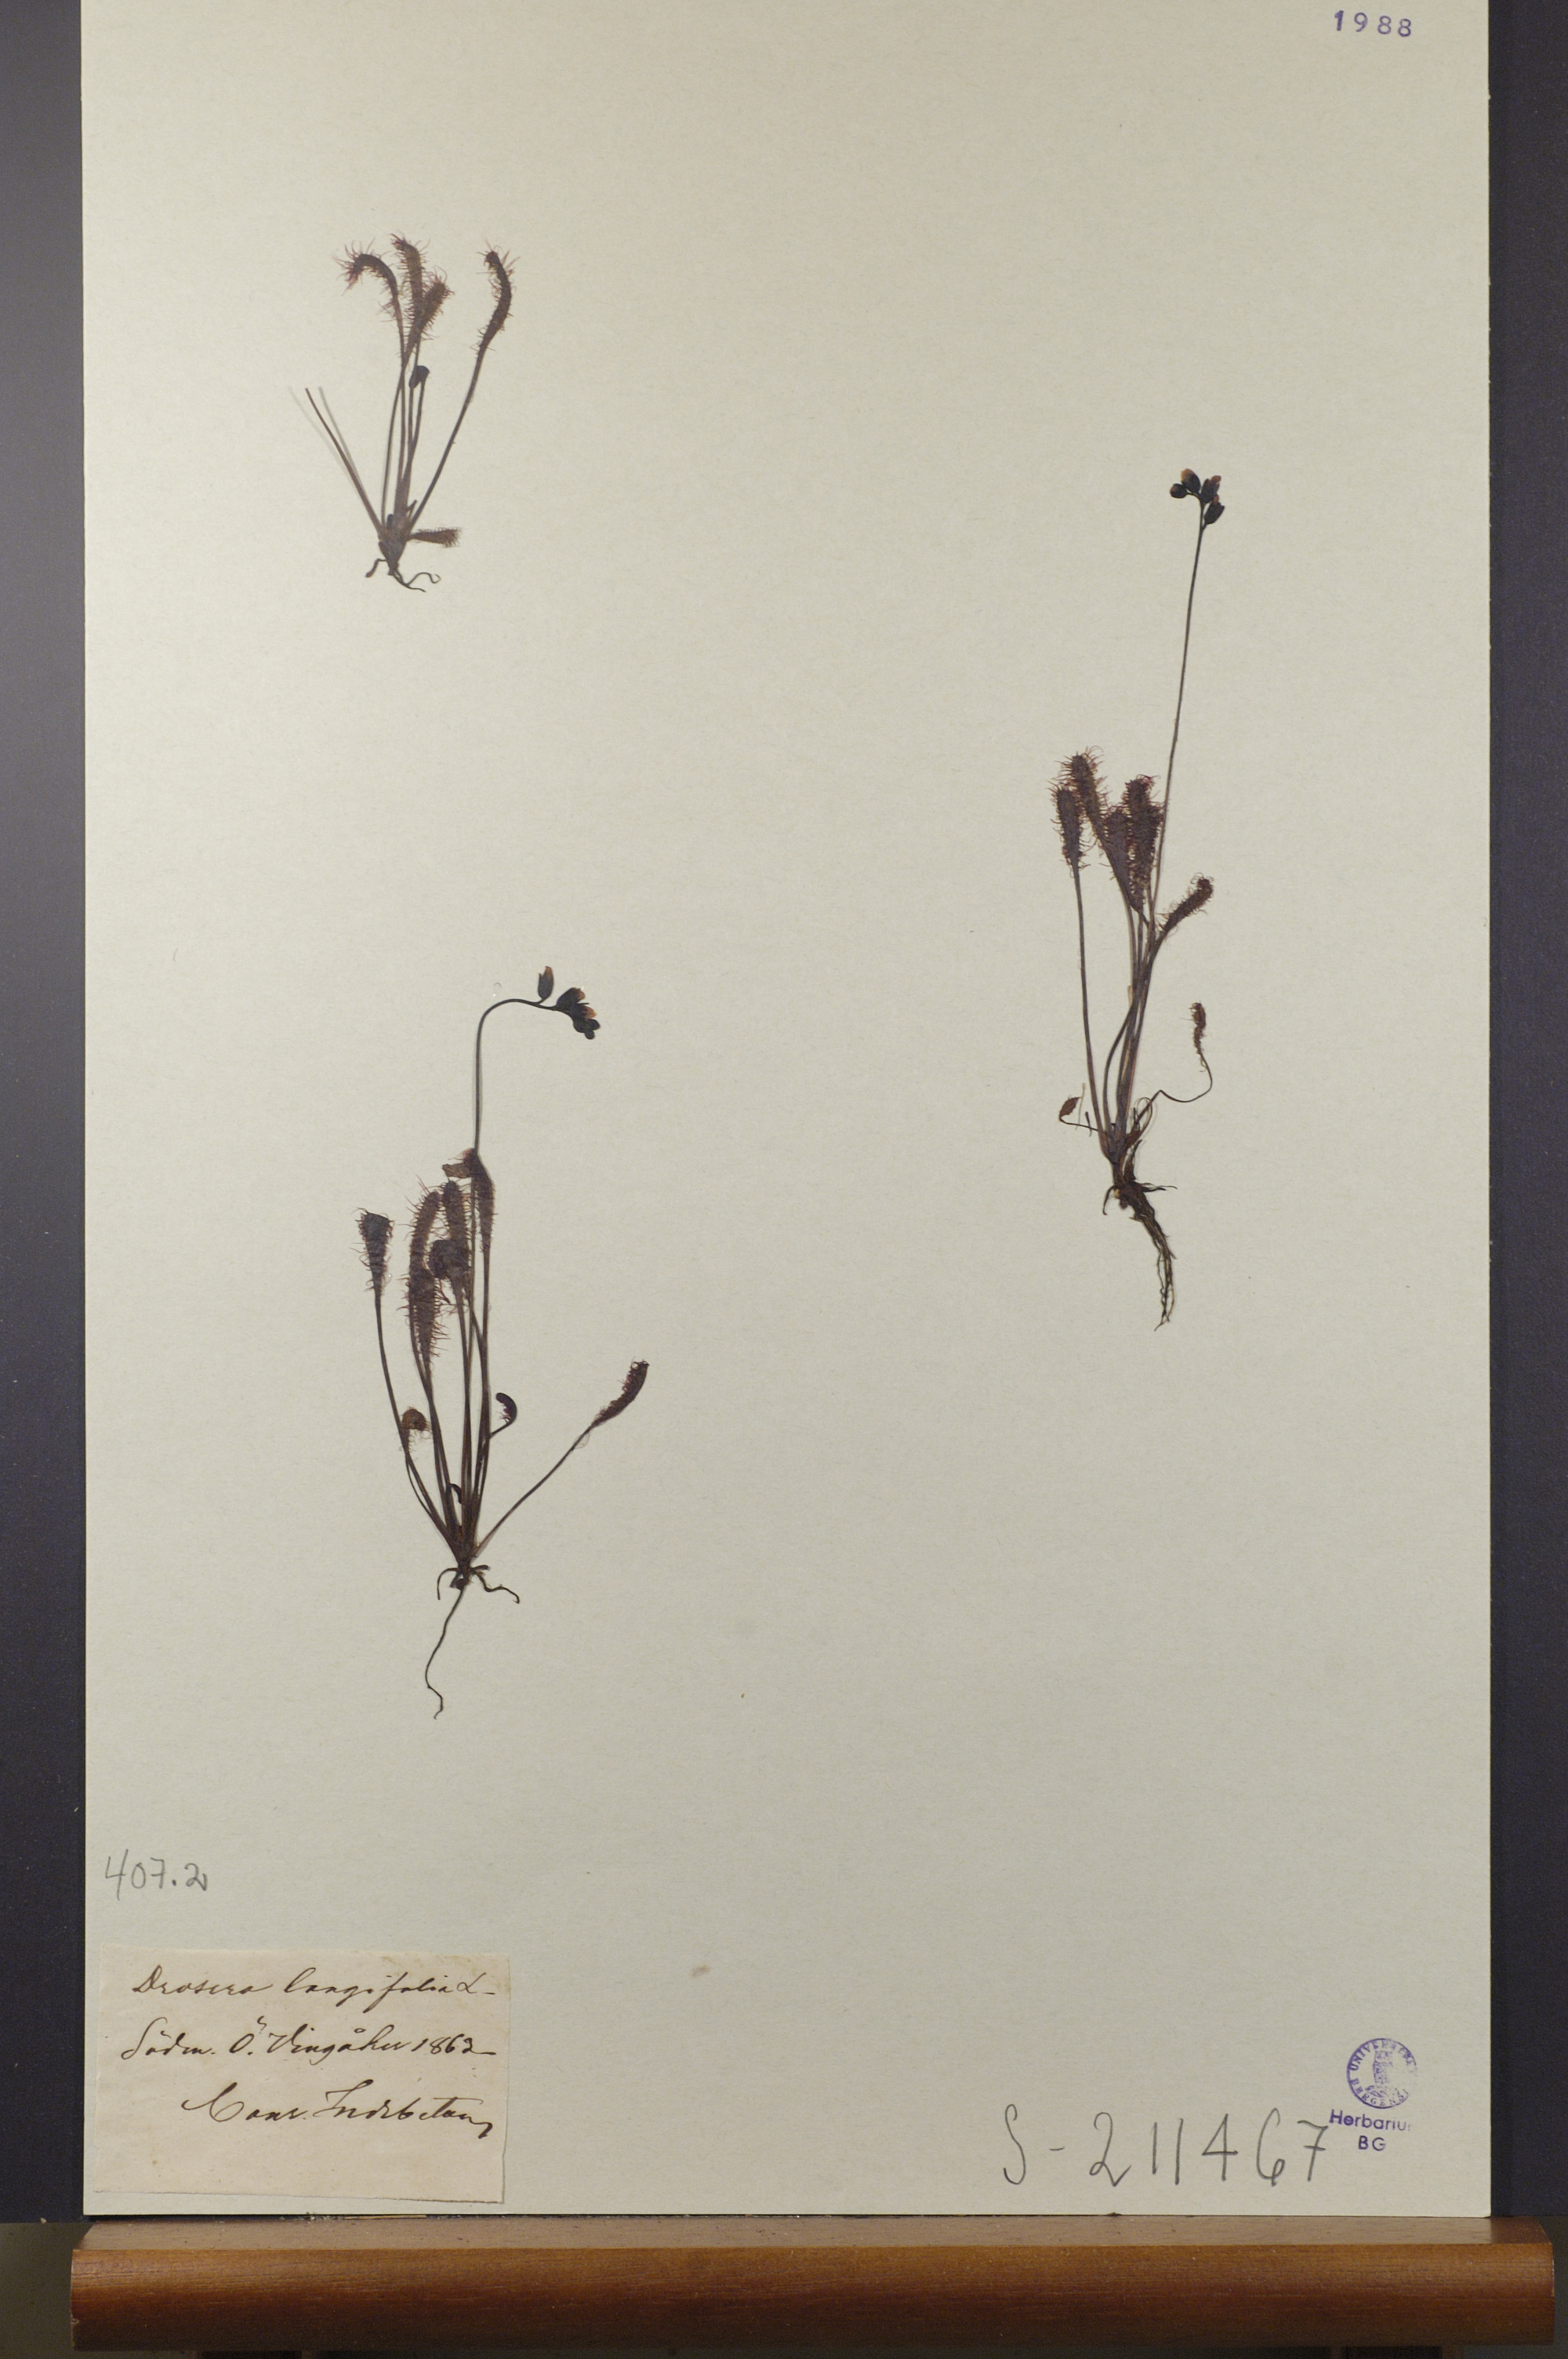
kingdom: Plantae
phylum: Tracheophyta
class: Magnoliopsida
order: Caryophyllales
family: Droseraceae
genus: Drosera
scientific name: Drosera anglica
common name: Great sundew
